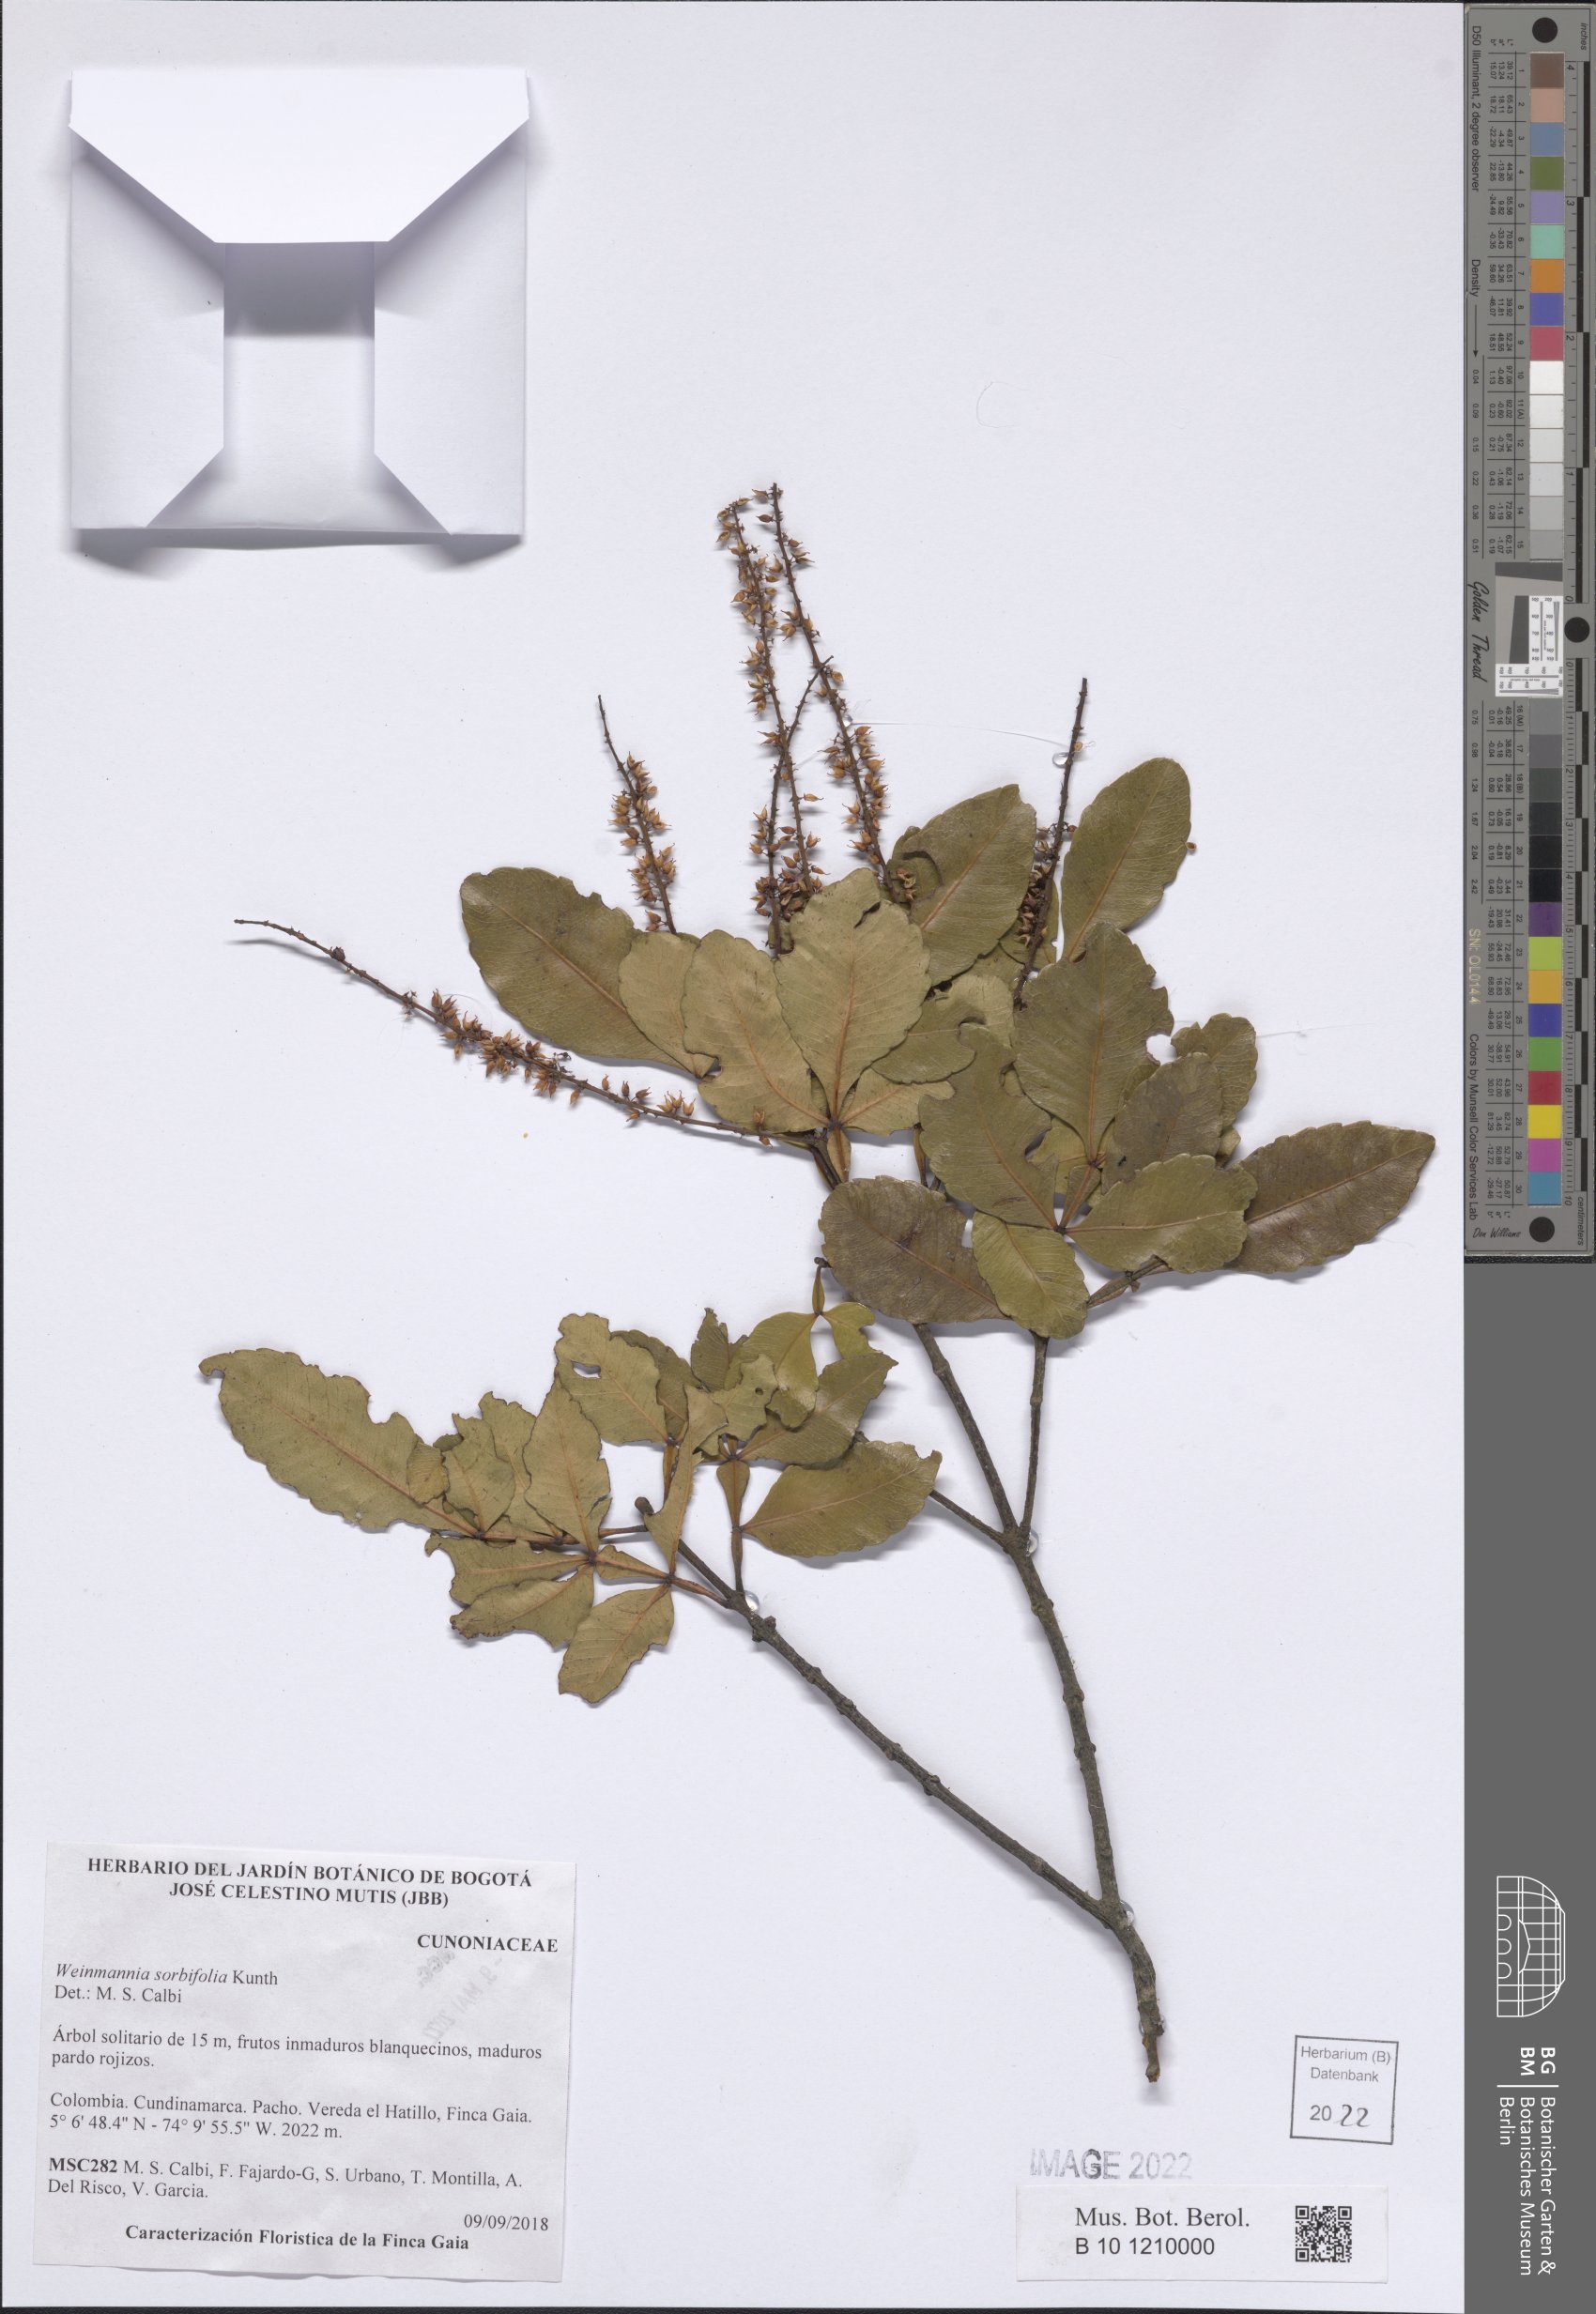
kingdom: Plantae
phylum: Tracheophyta
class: Magnoliopsida
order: Oxalidales
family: Cunoniaceae
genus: Weinmannia
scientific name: Weinmannia sorbifolia
